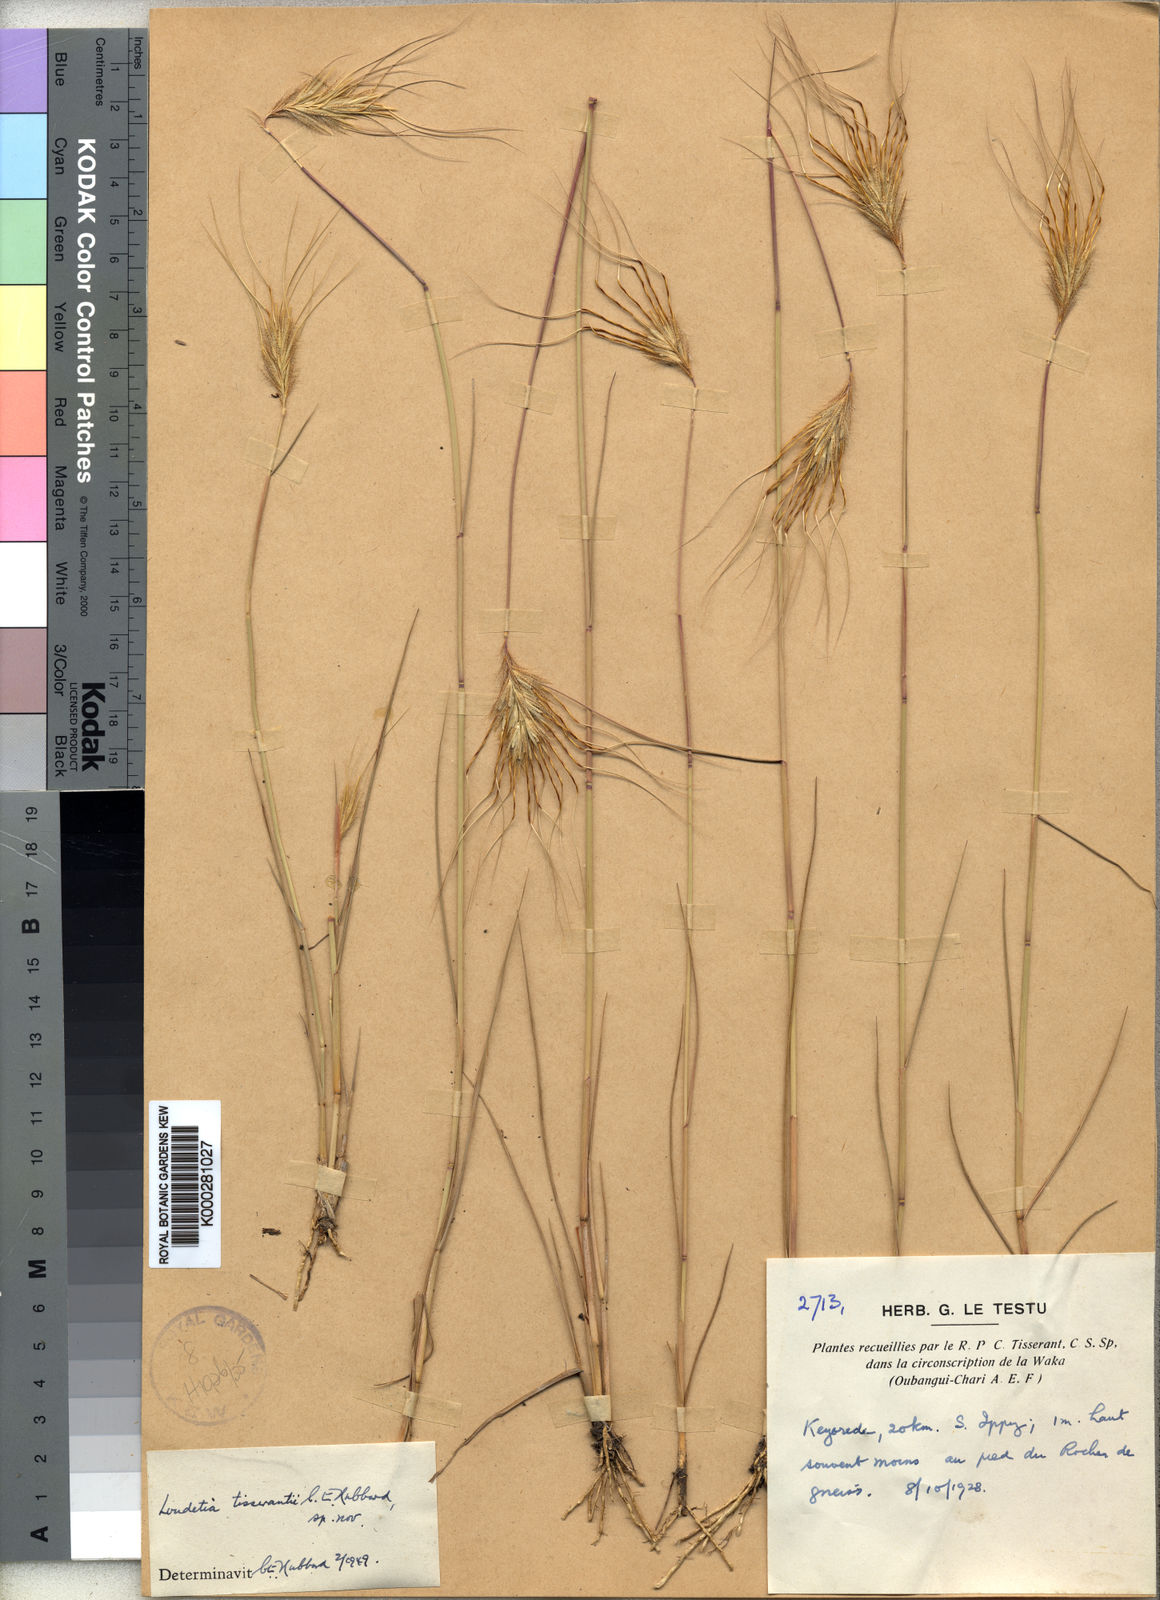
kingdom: Plantae
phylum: Tracheophyta
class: Liliopsida
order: Poales
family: Poaceae
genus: Loudetia
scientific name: Loudetia tisserantii
